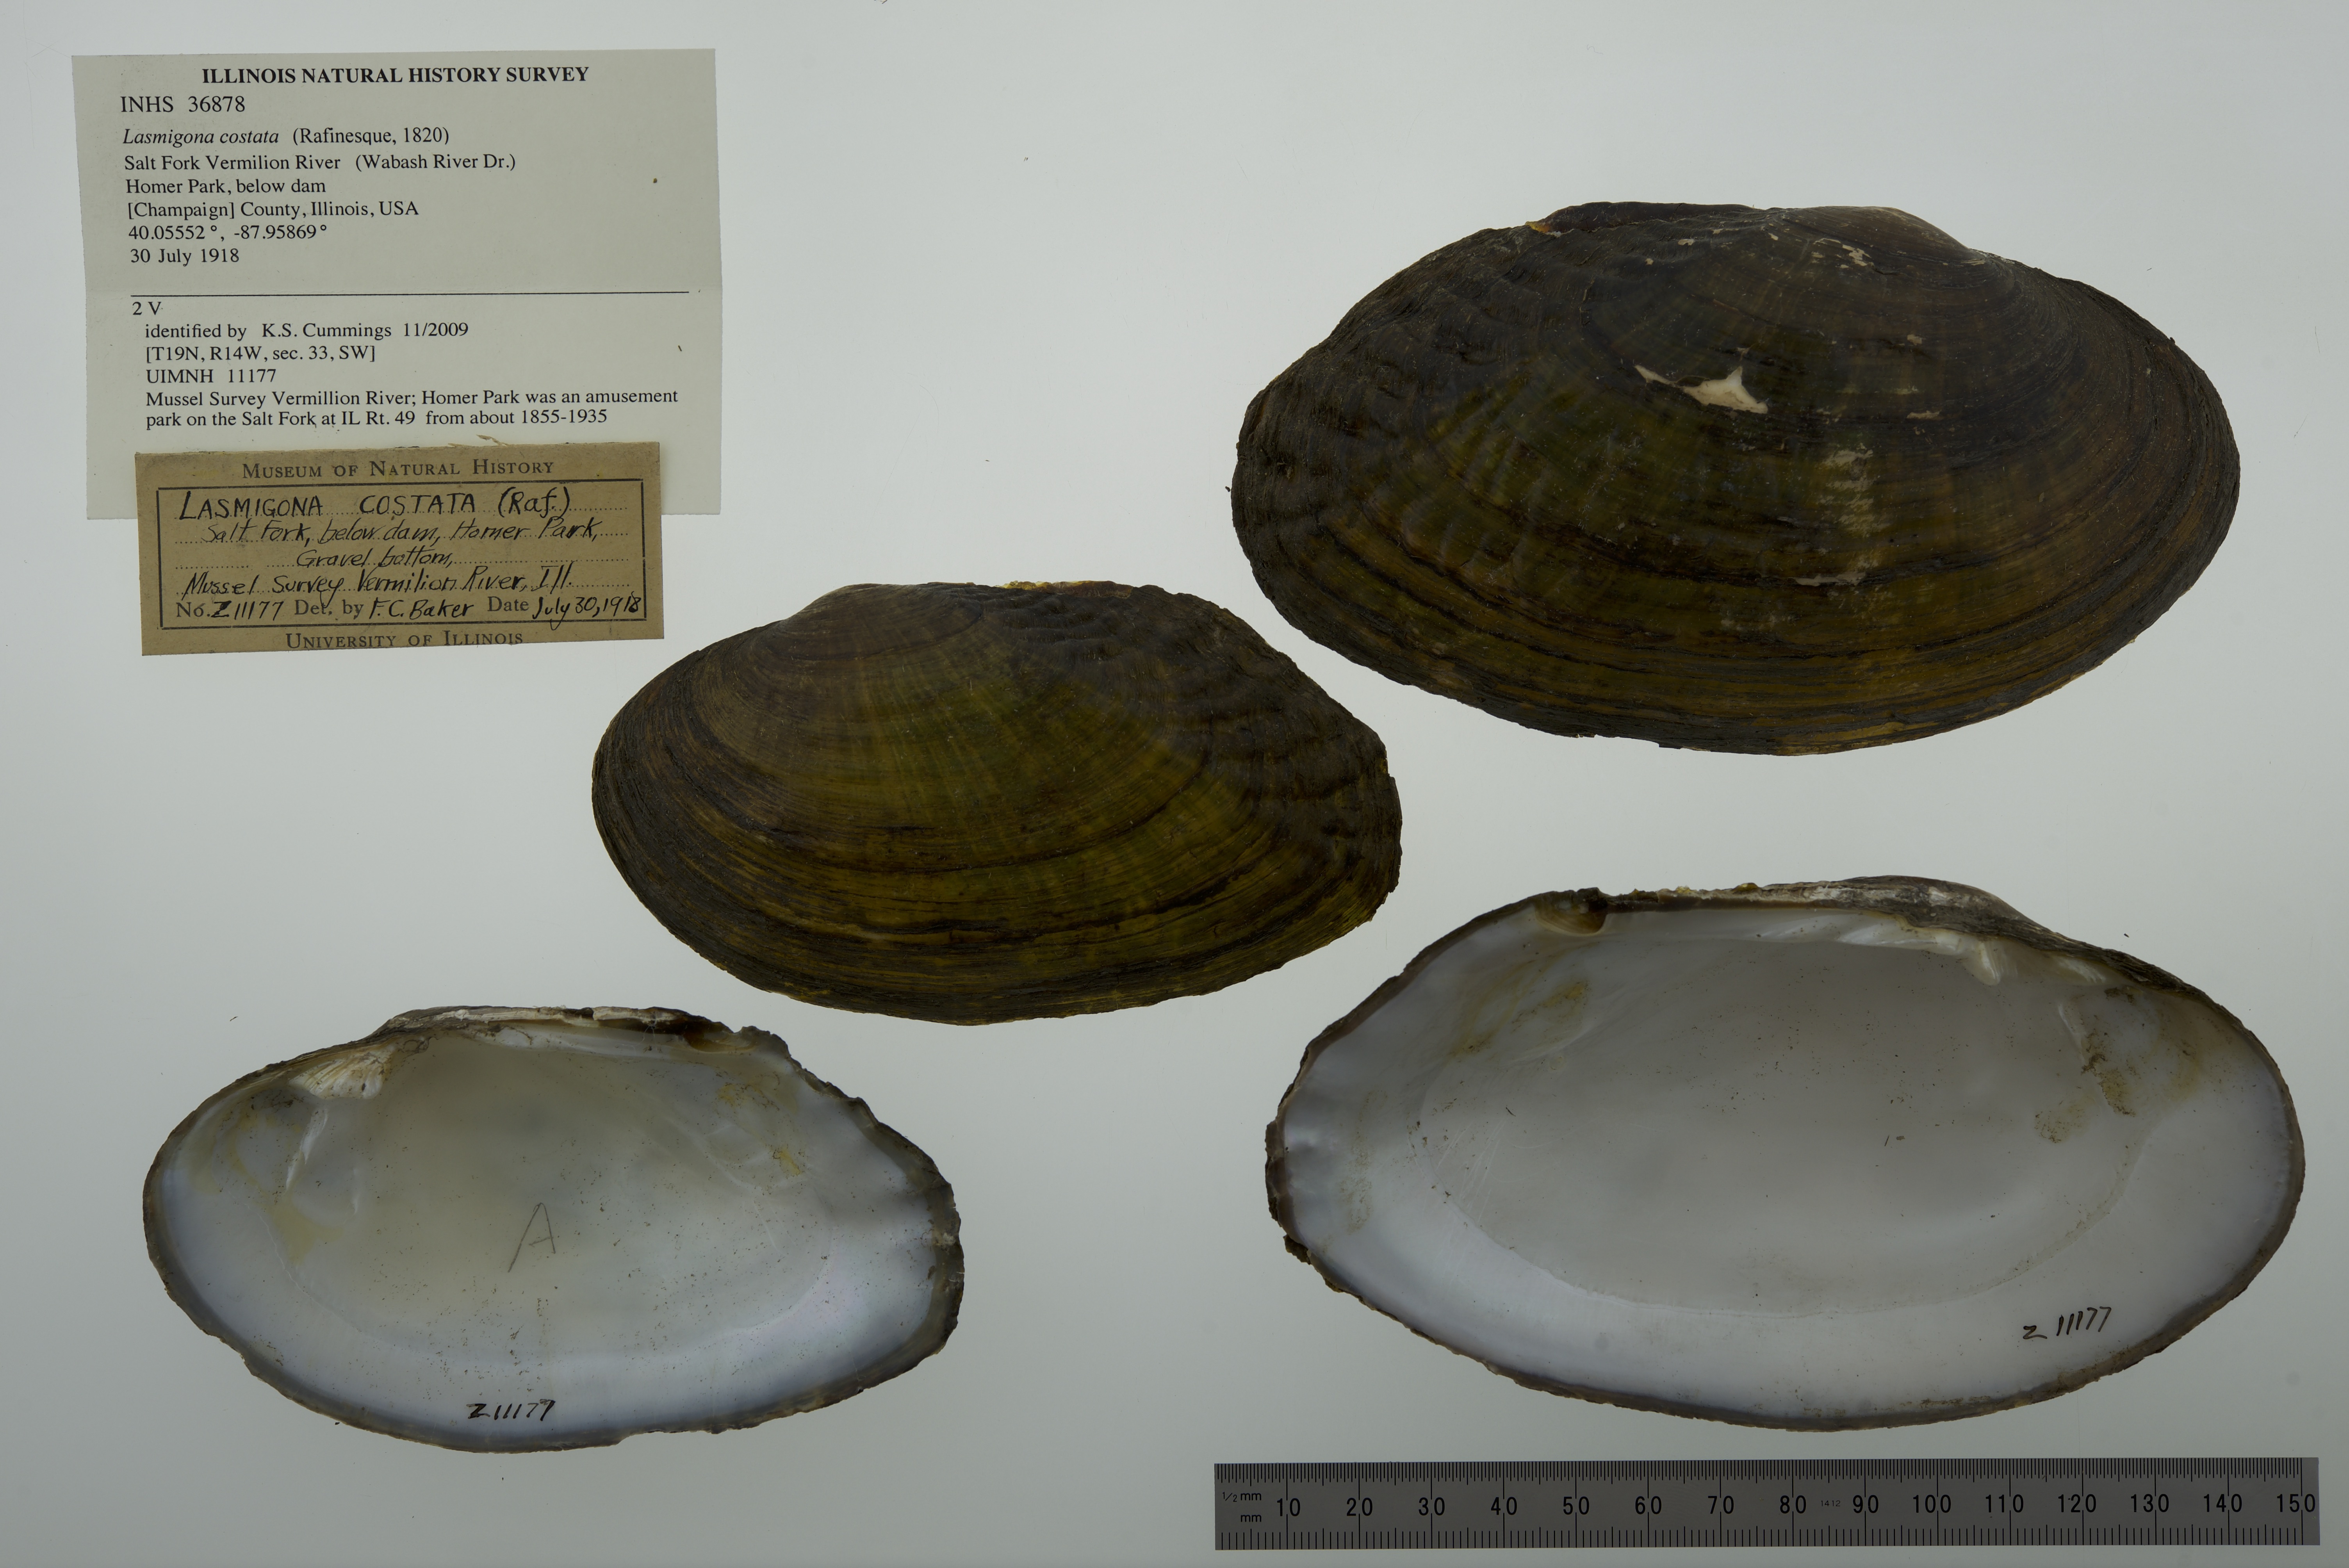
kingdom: Animalia
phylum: Mollusca
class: Bivalvia
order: Unionida
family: Unionidae
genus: Lasmigona
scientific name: Lasmigona costata
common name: Flutedshell
